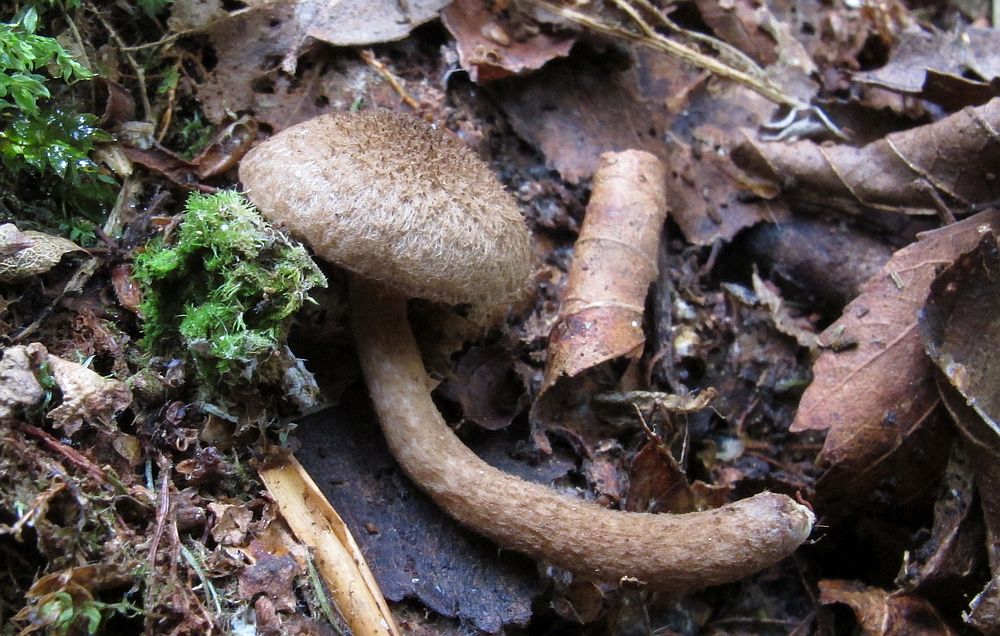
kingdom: Fungi
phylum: Basidiomycota
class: Agaricomycetes
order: Agaricales
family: Inocybaceae
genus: Inocybe
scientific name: Inocybe lanuginosa
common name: uldskællet trævlhat
